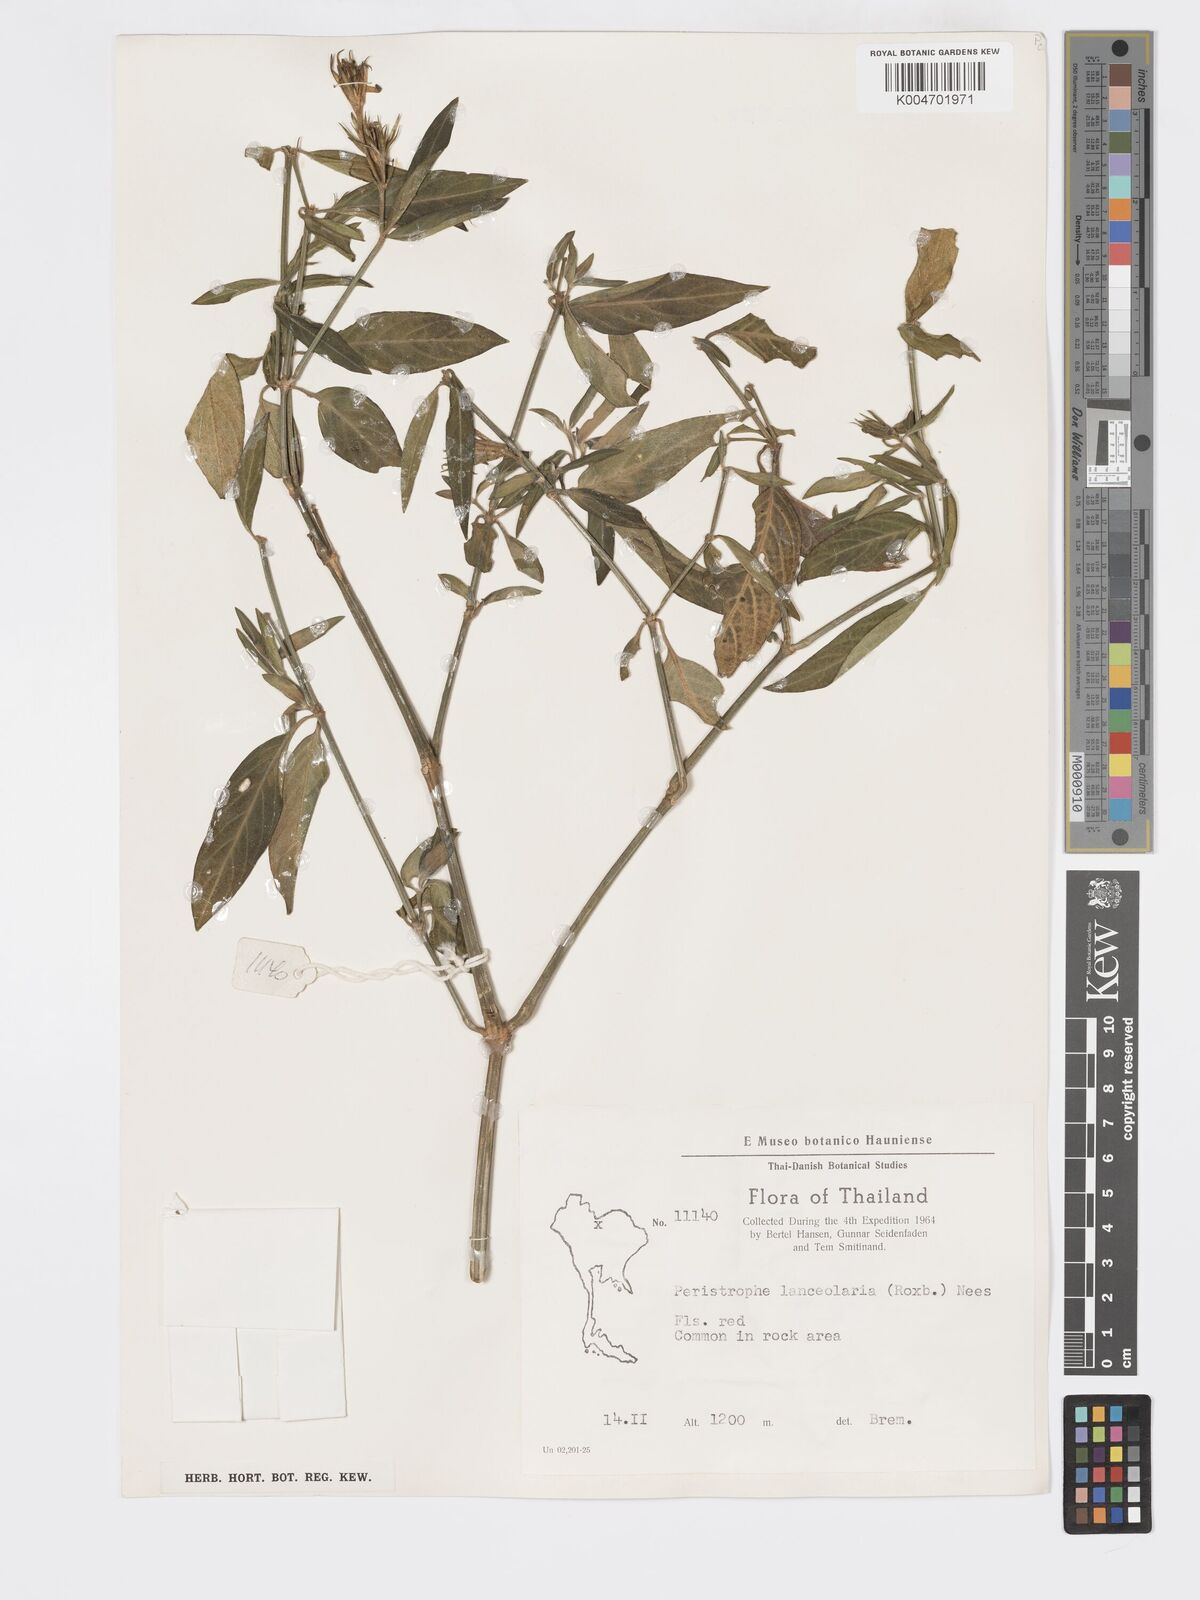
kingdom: Plantae
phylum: Tracheophyta
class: Magnoliopsida
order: Lamiales
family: Acanthaceae
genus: Dicliptera
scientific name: Dicliptera lanceolaria
